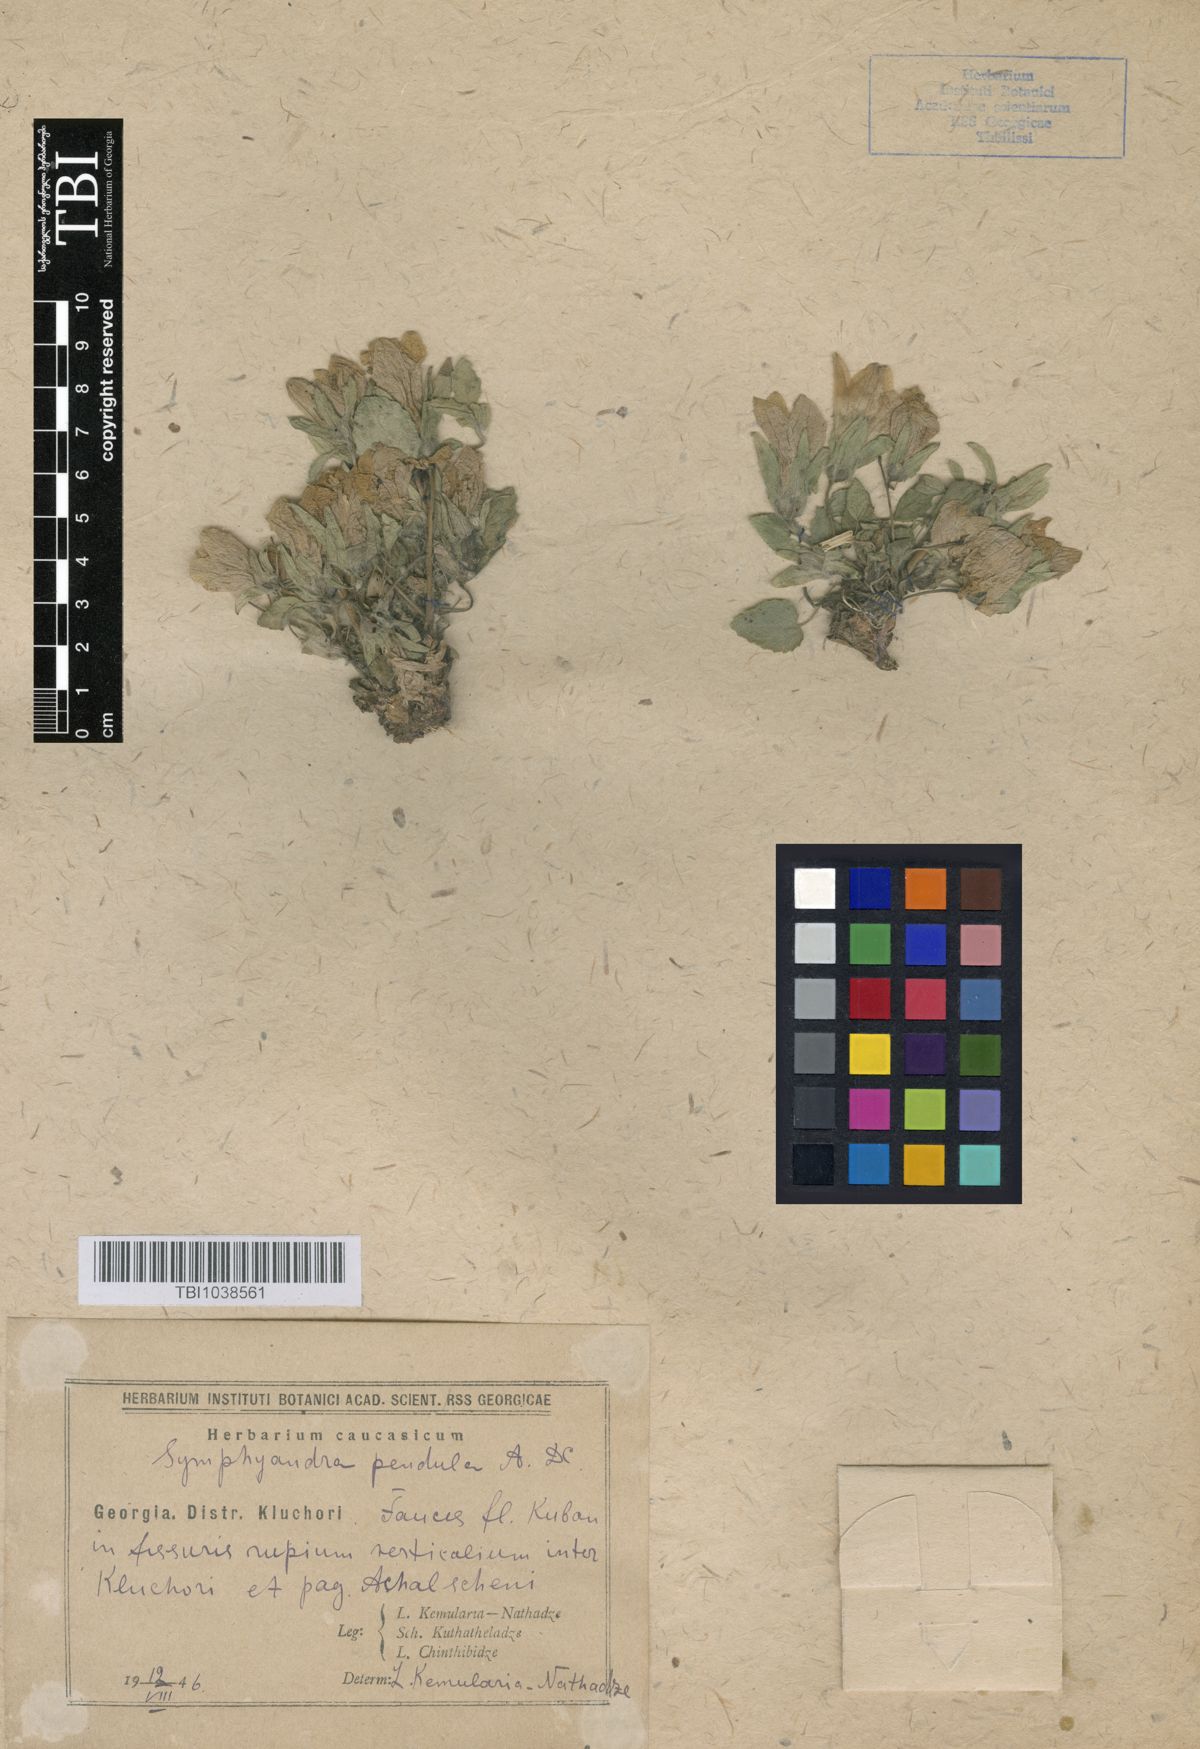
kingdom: Plantae
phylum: Tracheophyta
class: Magnoliopsida
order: Asterales
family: Campanulaceae
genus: Campanula
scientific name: Campanula pendula
